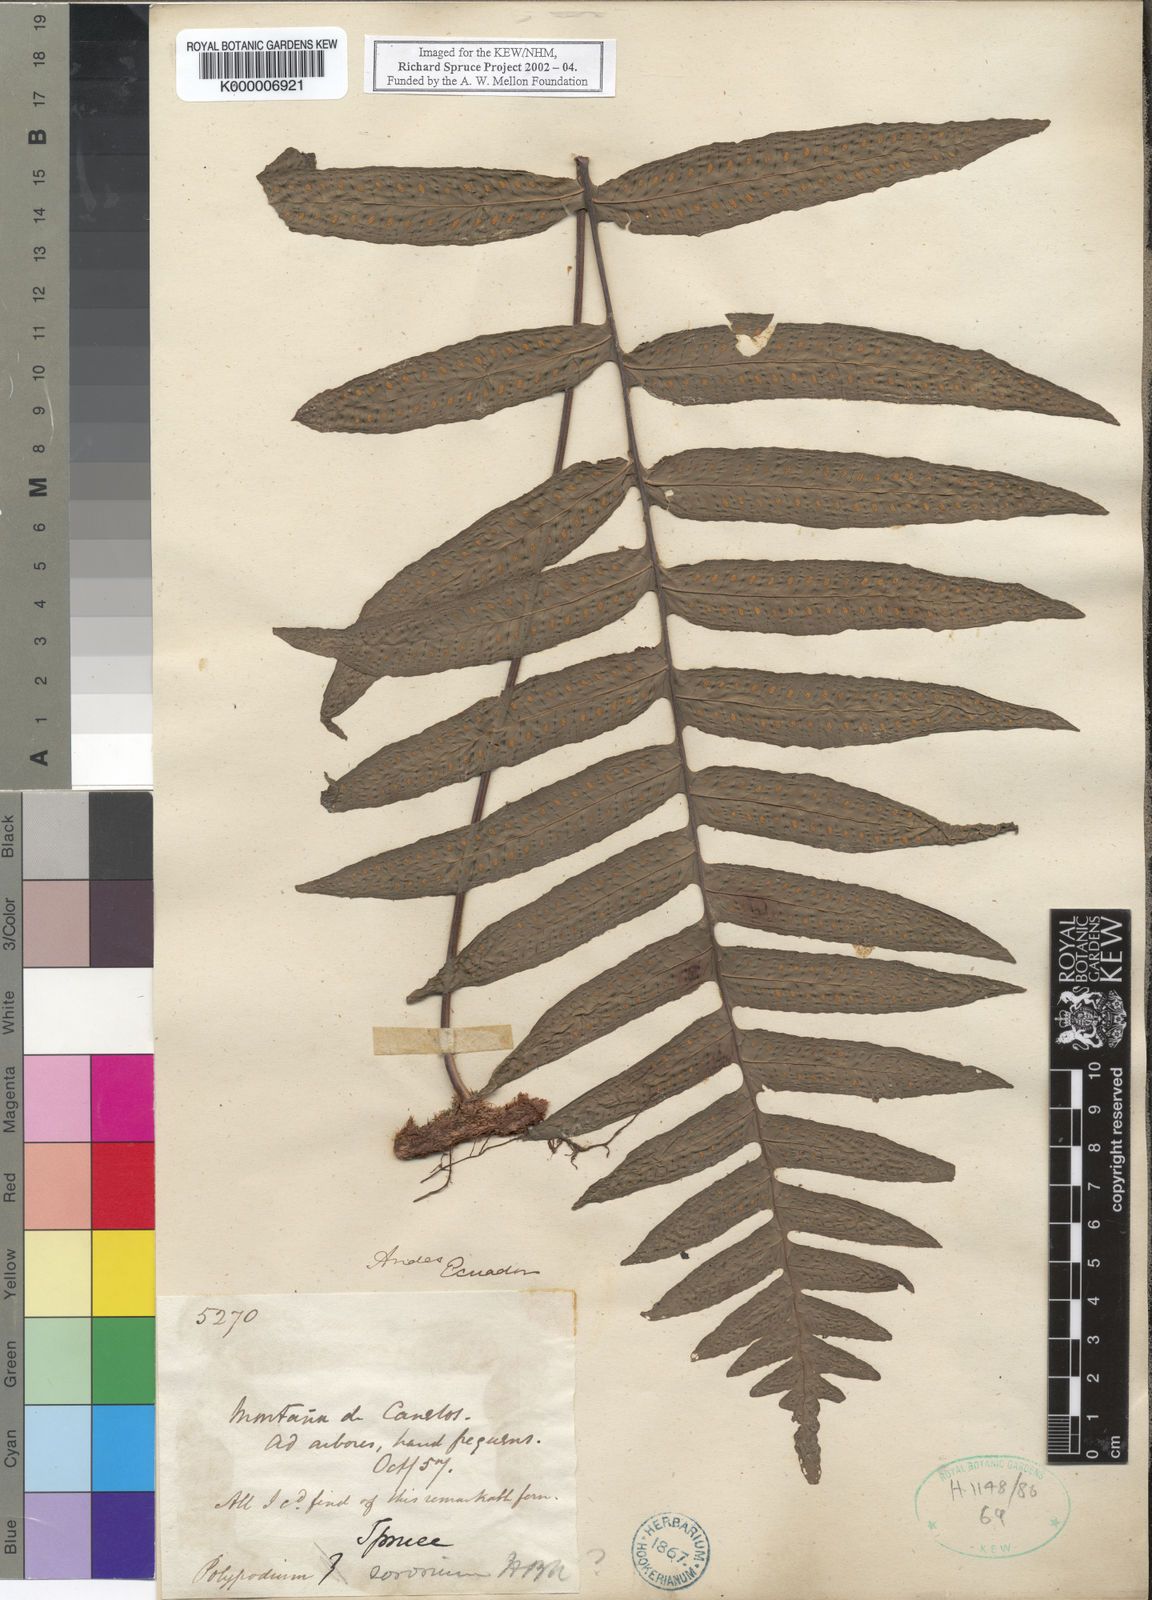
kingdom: Plantae
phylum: Tracheophyta
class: Polypodiopsida
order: Polypodiales
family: Polypodiaceae
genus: Pecluma
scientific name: Pecluma dulcis
